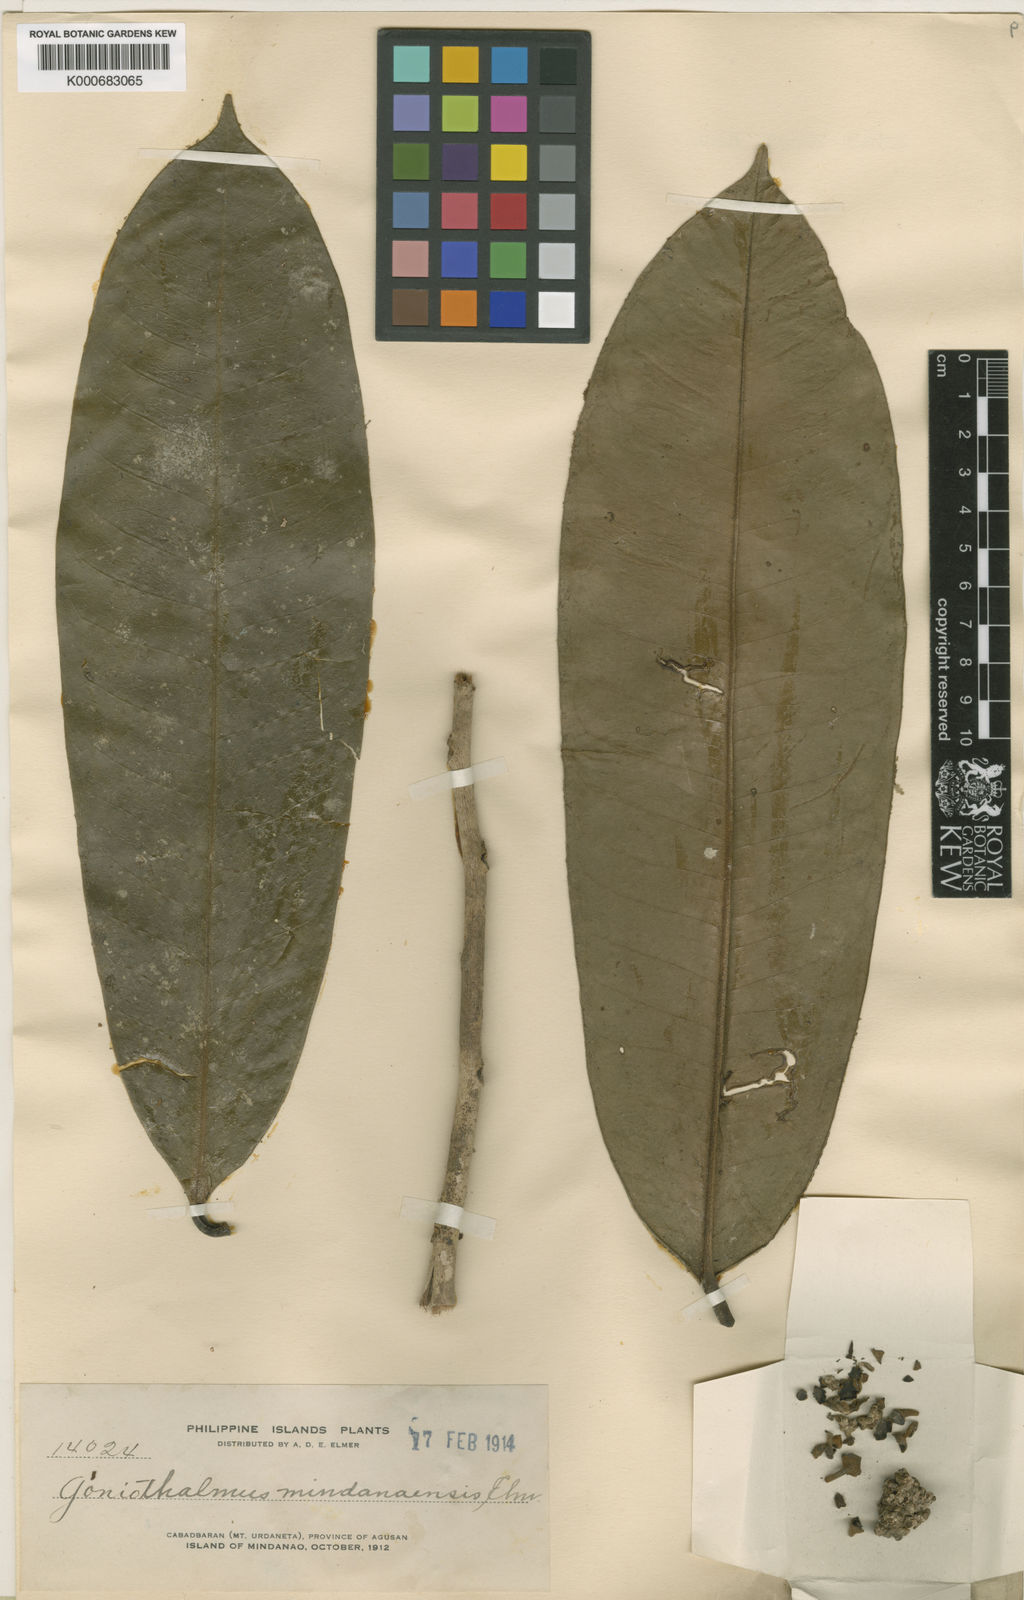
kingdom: Plantae
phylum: Tracheophyta
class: Magnoliopsida
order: Magnoliales
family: Annonaceae
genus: Goniothalamus
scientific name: Goniothalamus philippinensis
